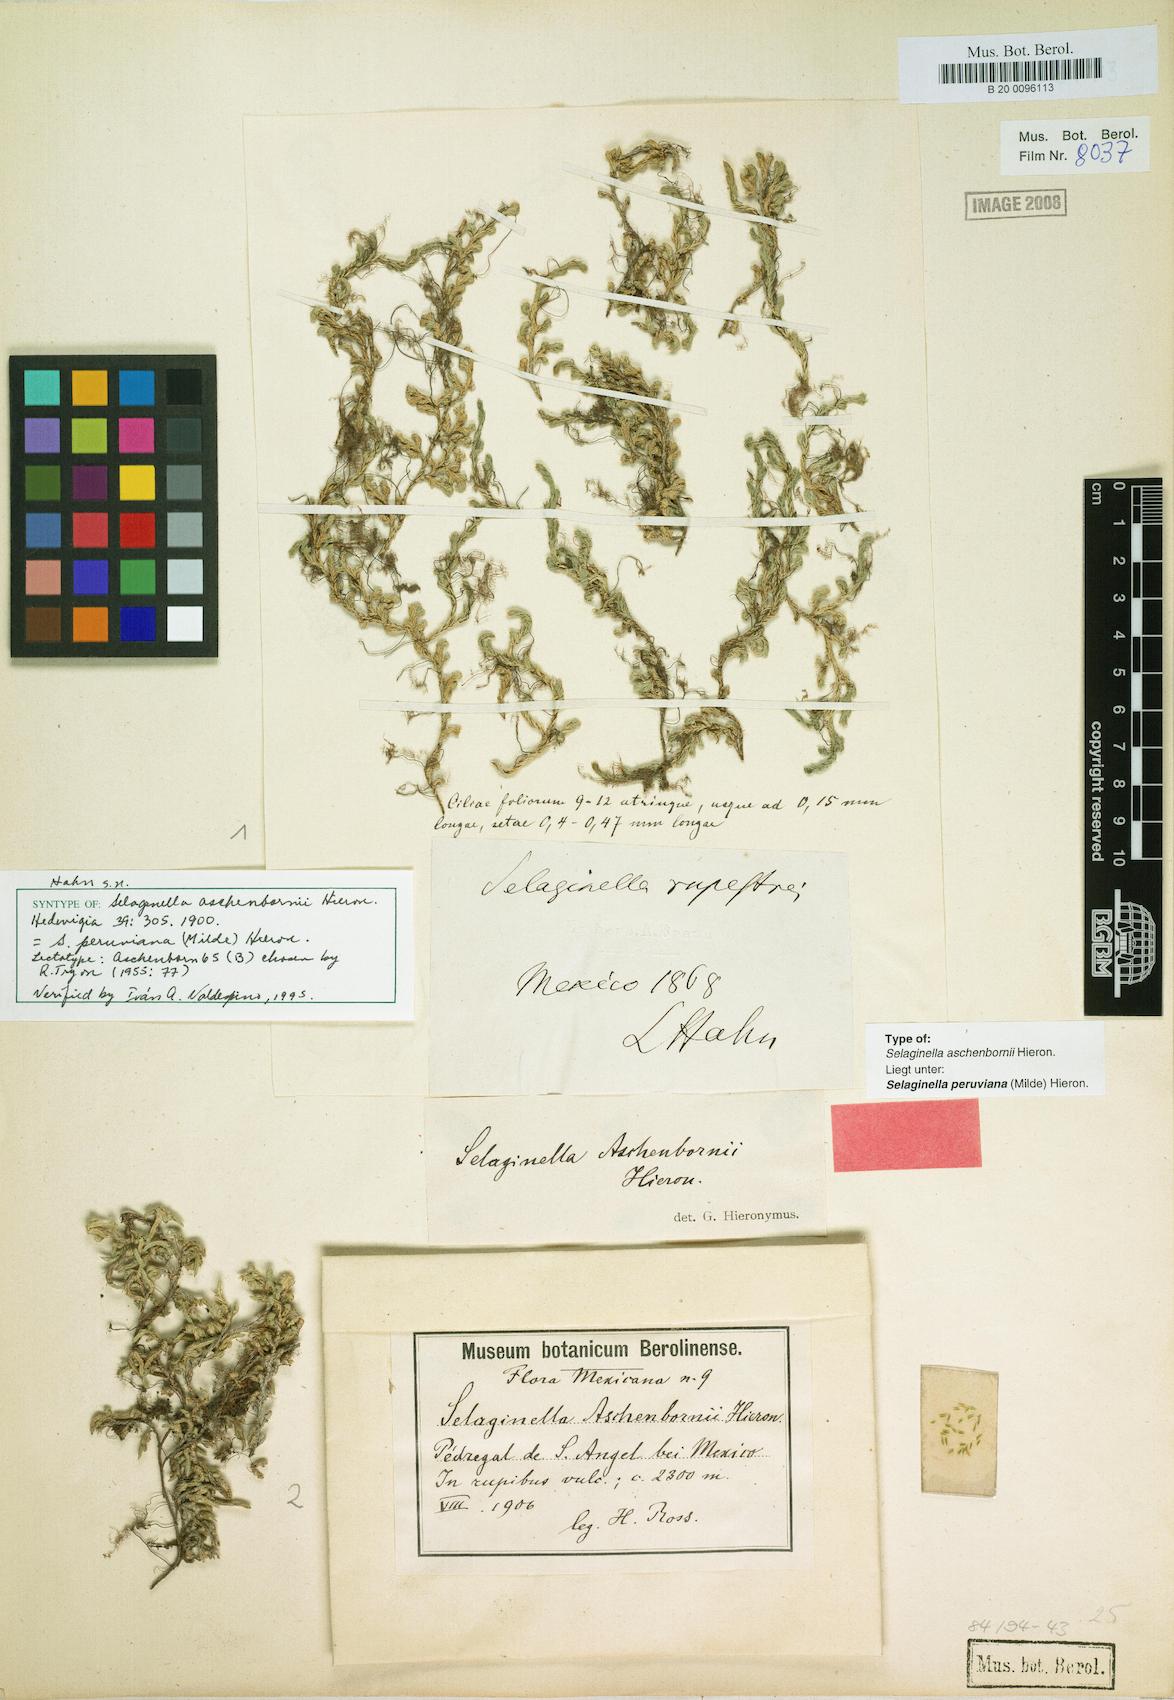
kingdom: Plantae
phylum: Tracheophyta
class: Lycopodiopsida
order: Selaginellales
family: Selaginellaceae
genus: Selaginella
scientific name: Selaginella peruviana
